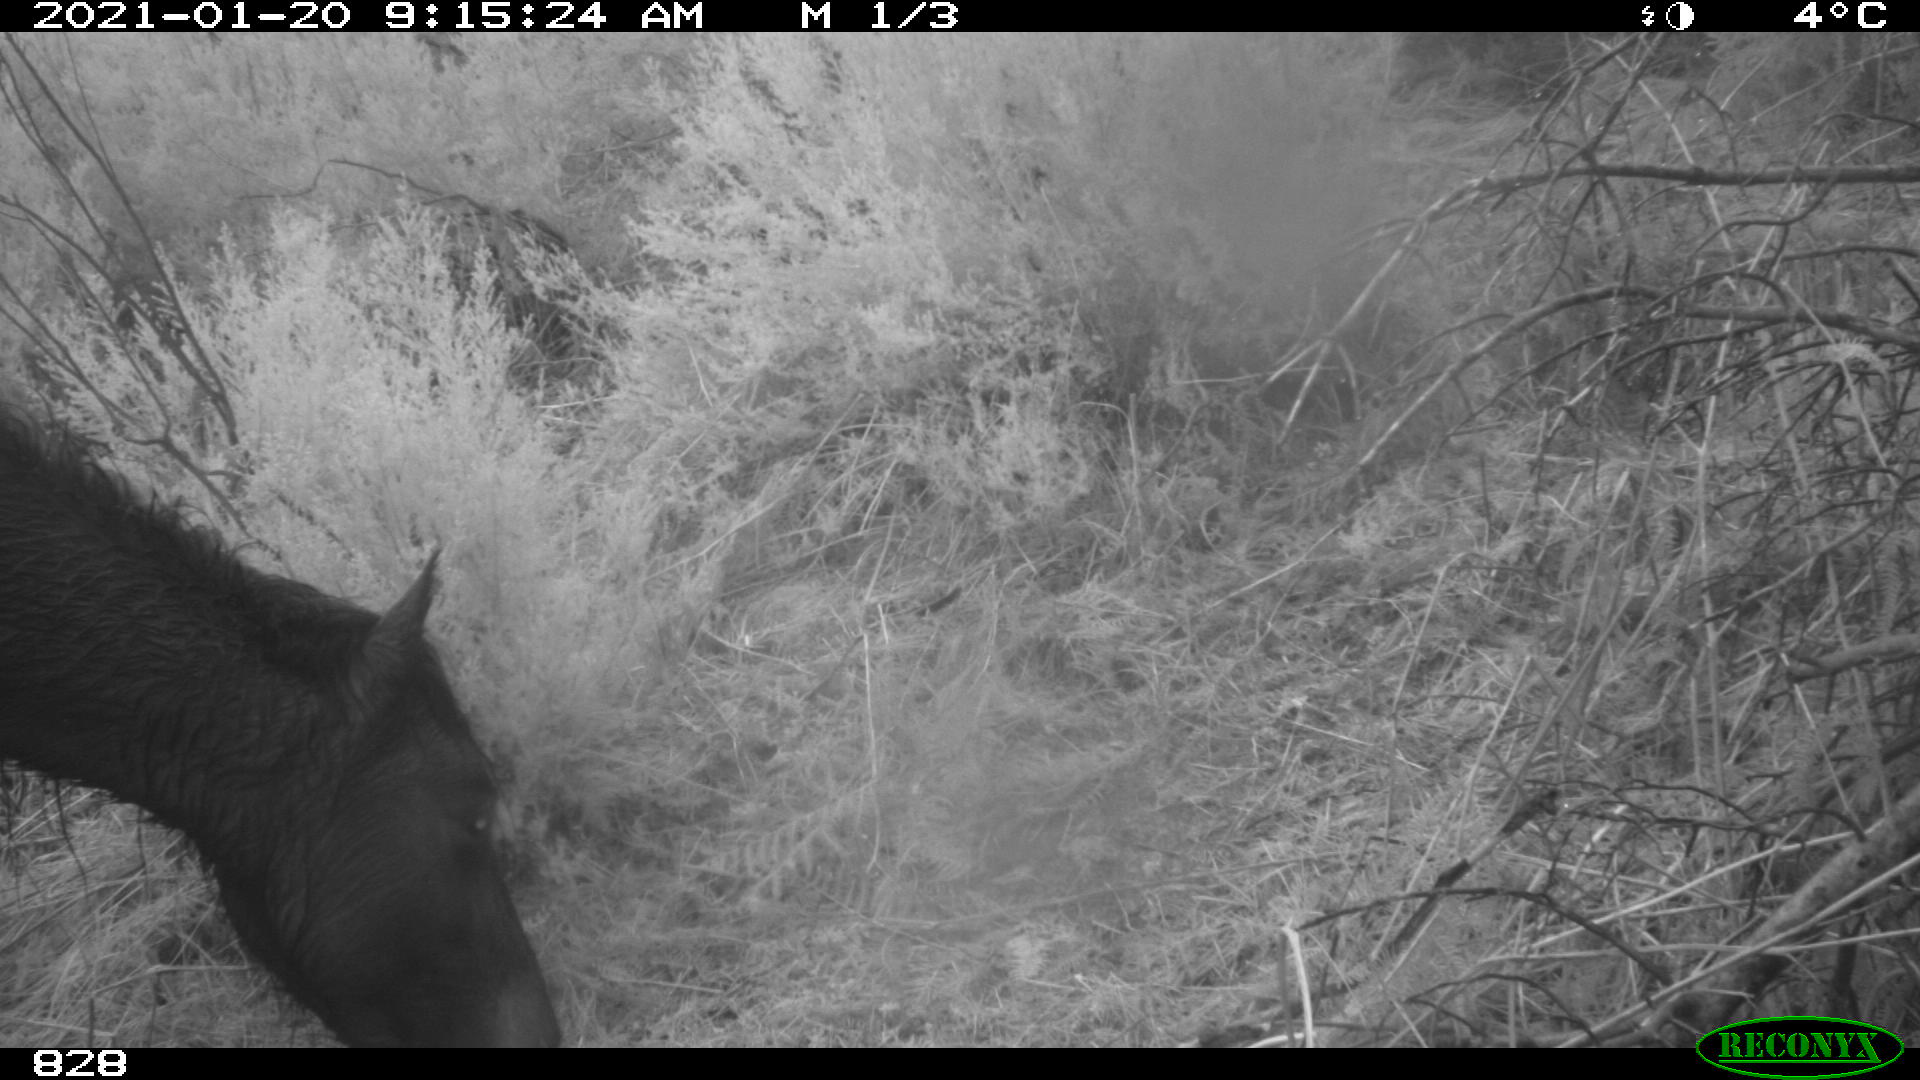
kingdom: Animalia
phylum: Chordata
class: Mammalia
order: Perissodactyla
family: Equidae
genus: Equus
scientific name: Equus caballus
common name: Horse
